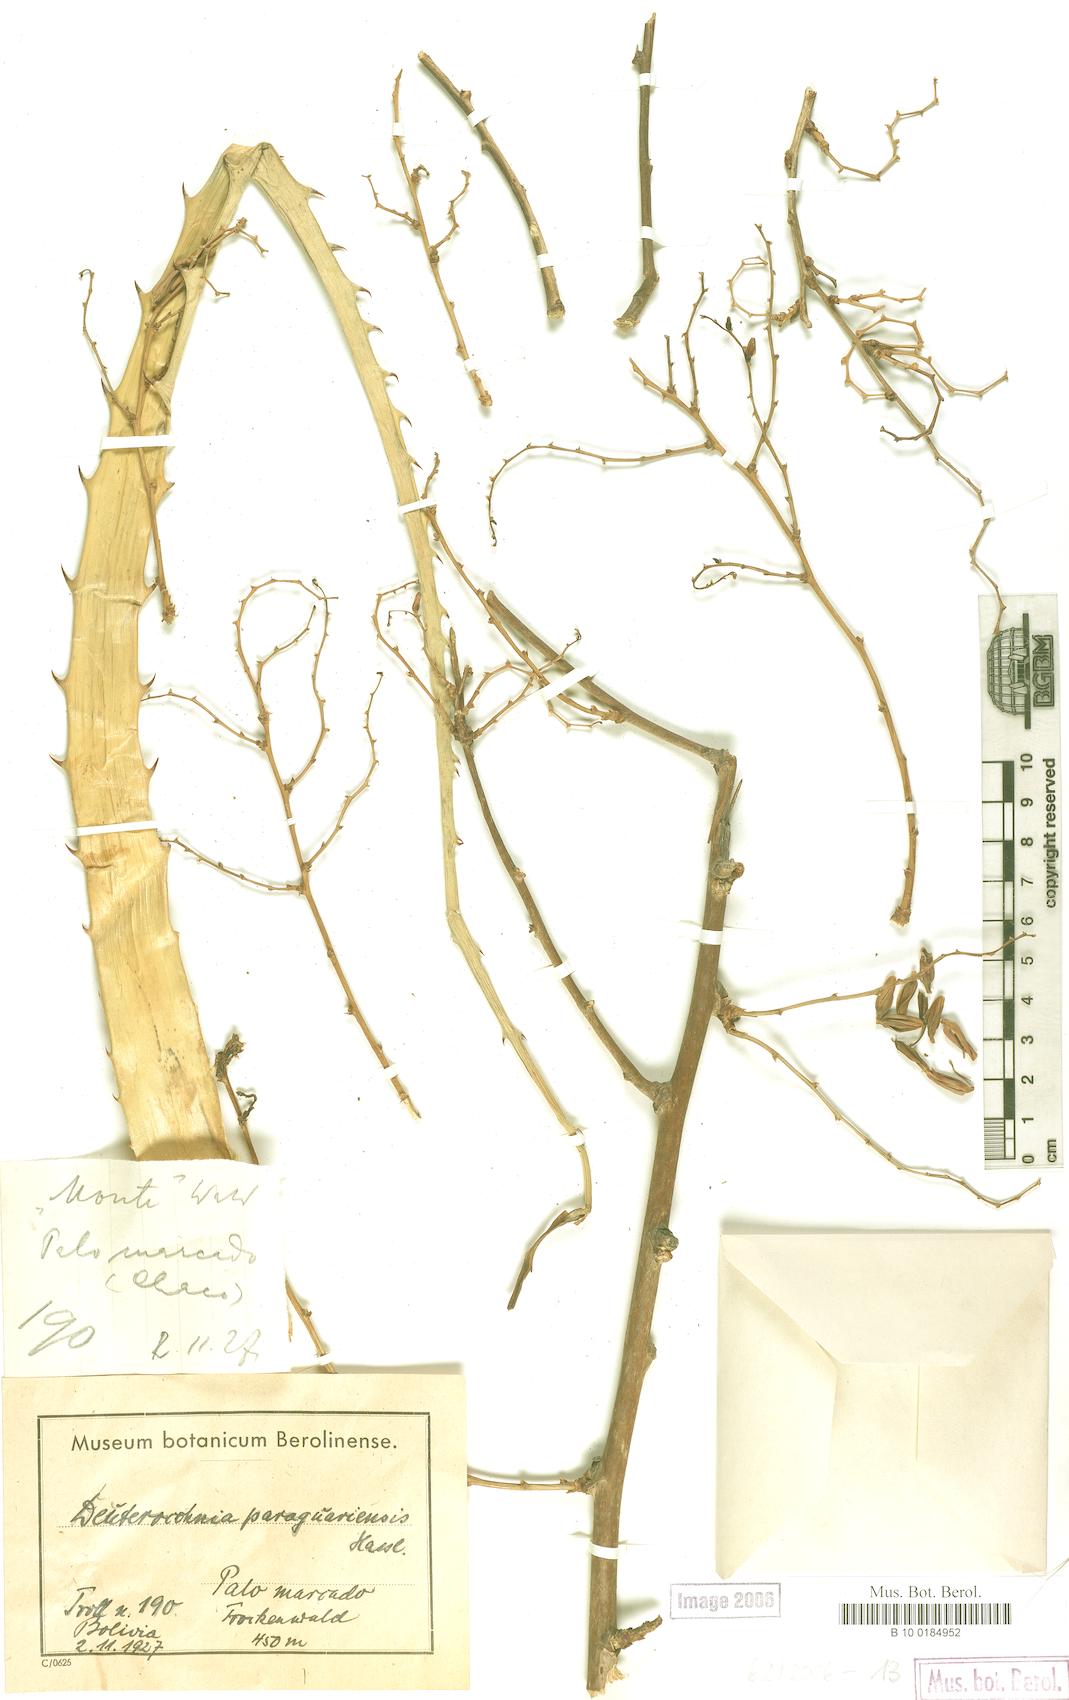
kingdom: Plantae
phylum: Tracheophyta
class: Liliopsida
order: Poales
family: Bromeliaceae
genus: Deuterocohnia
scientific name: Deuterocohnia meziana
